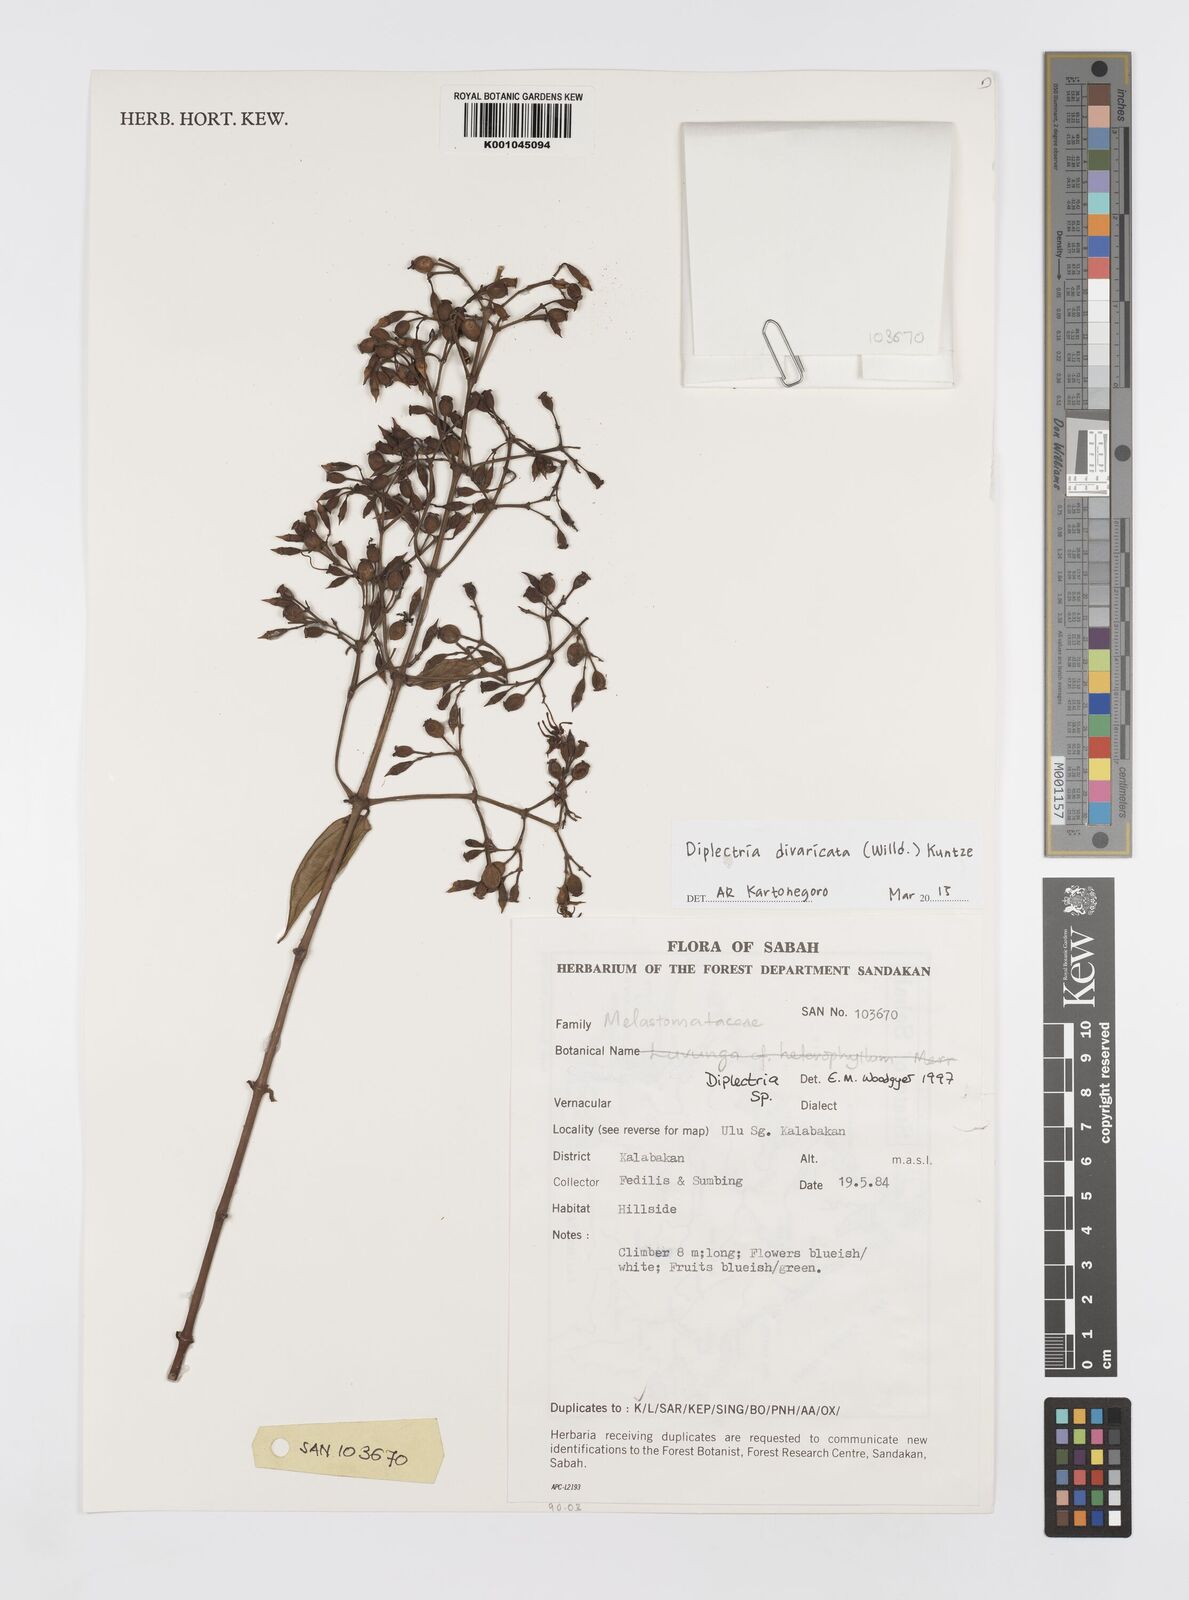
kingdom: Plantae
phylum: Tracheophyta
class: Magnoliopsida
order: Myrtales
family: Melastomataceae
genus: Diplectria
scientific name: Diplectria divaricata
